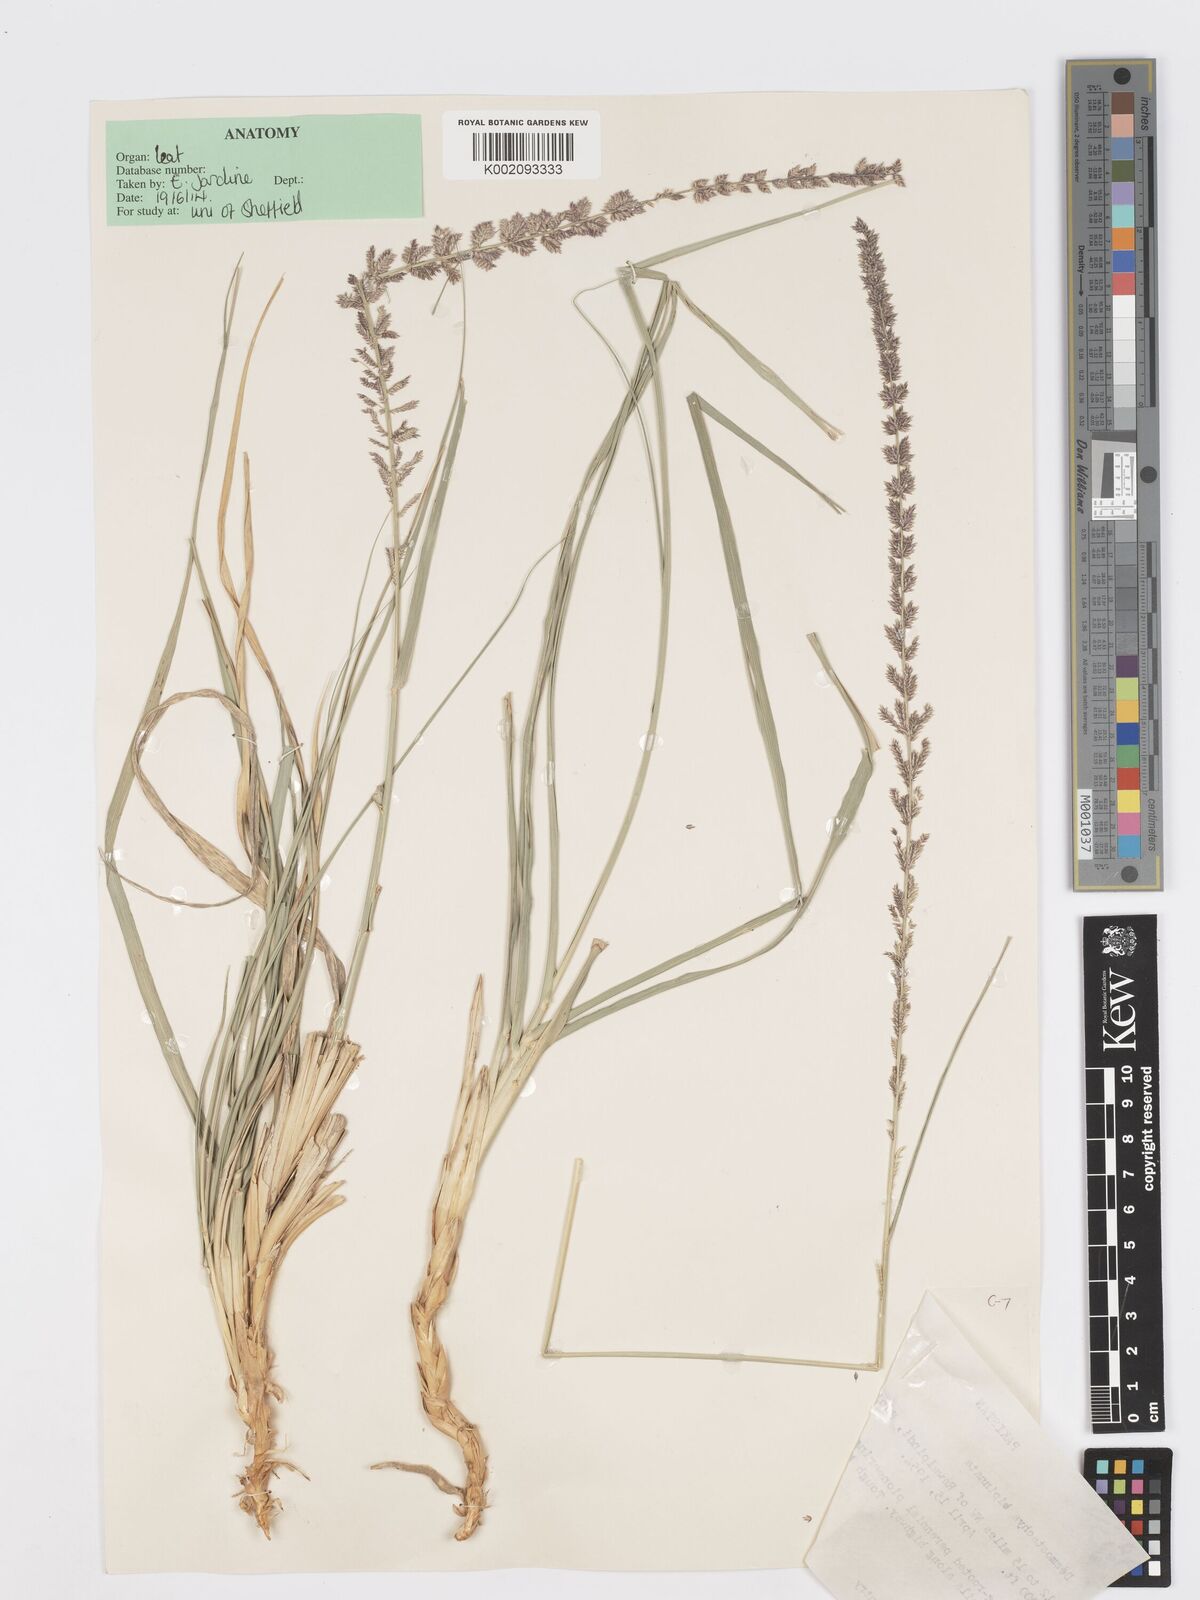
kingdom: Plantae
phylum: Tracheophyta
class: Liliopsida
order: Poales
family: Poaceae
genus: Desmostachya
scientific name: Desmostachya bipinnata
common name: Crowfoot grass
